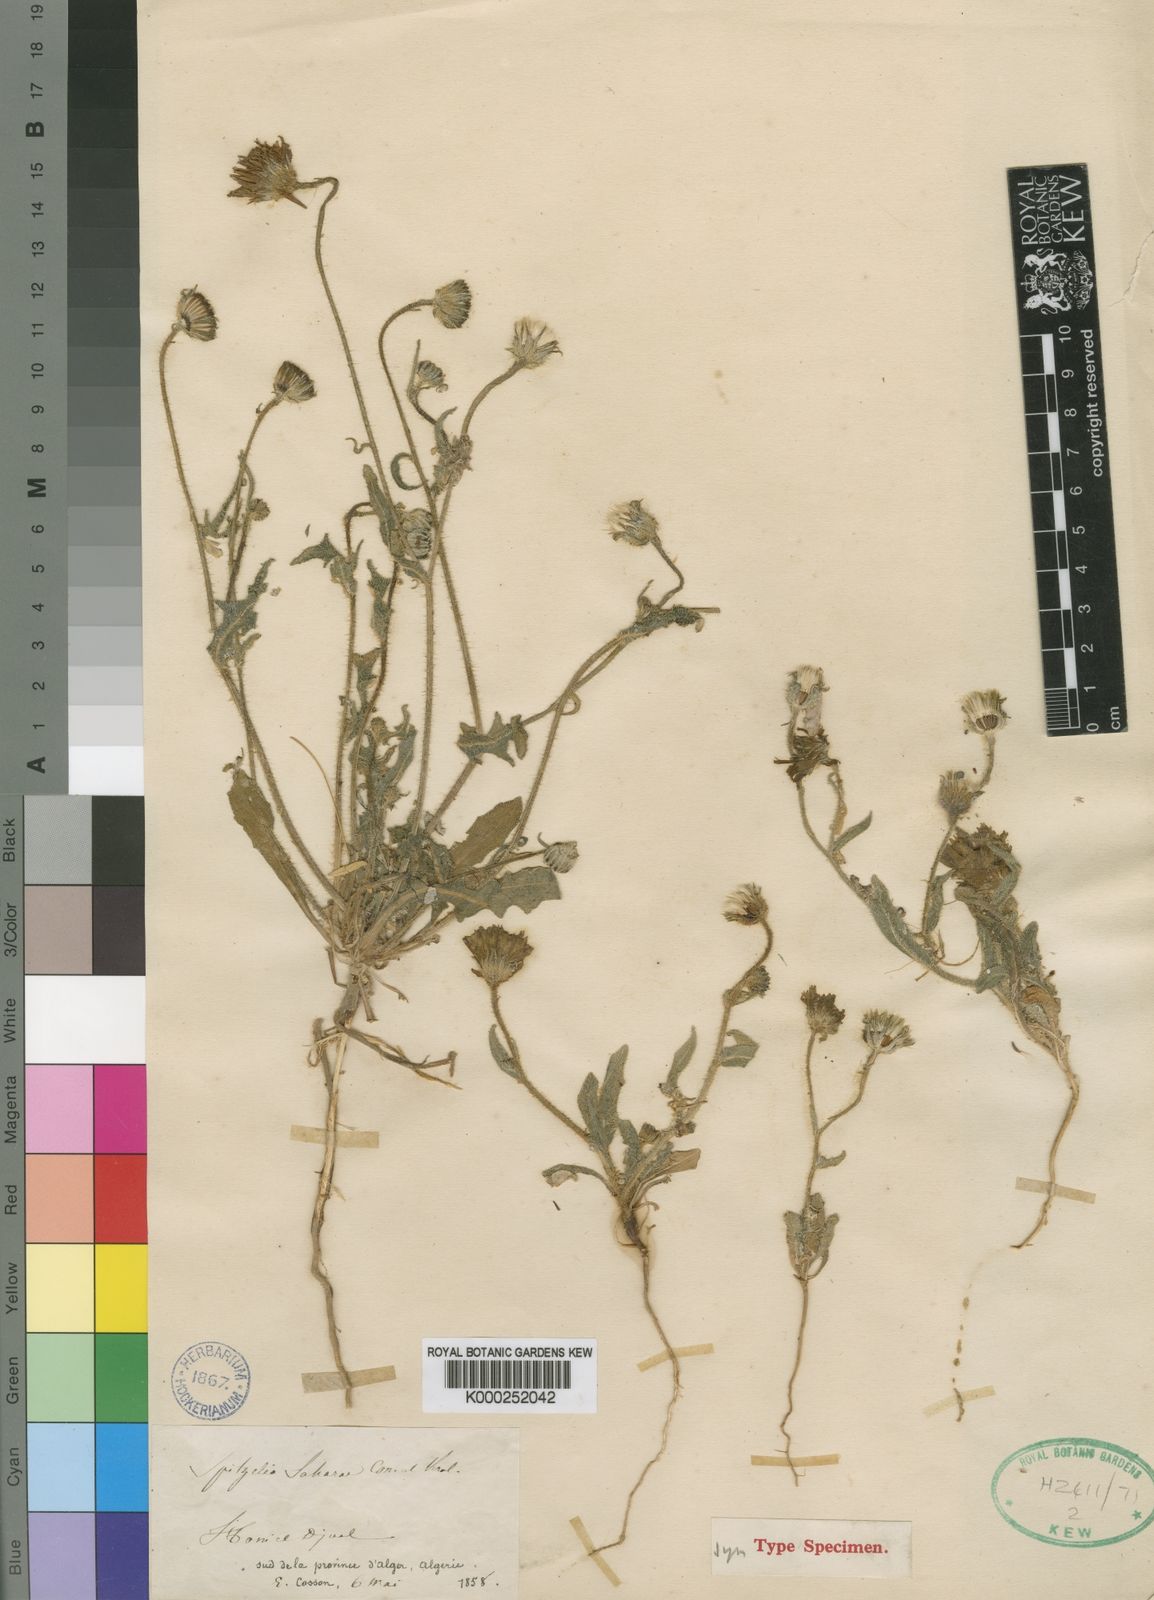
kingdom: Plantae
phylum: Tracheophyta
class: Magnoliopsida
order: Asterales
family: Asteraceae
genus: Picris
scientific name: Picris asplenioides
